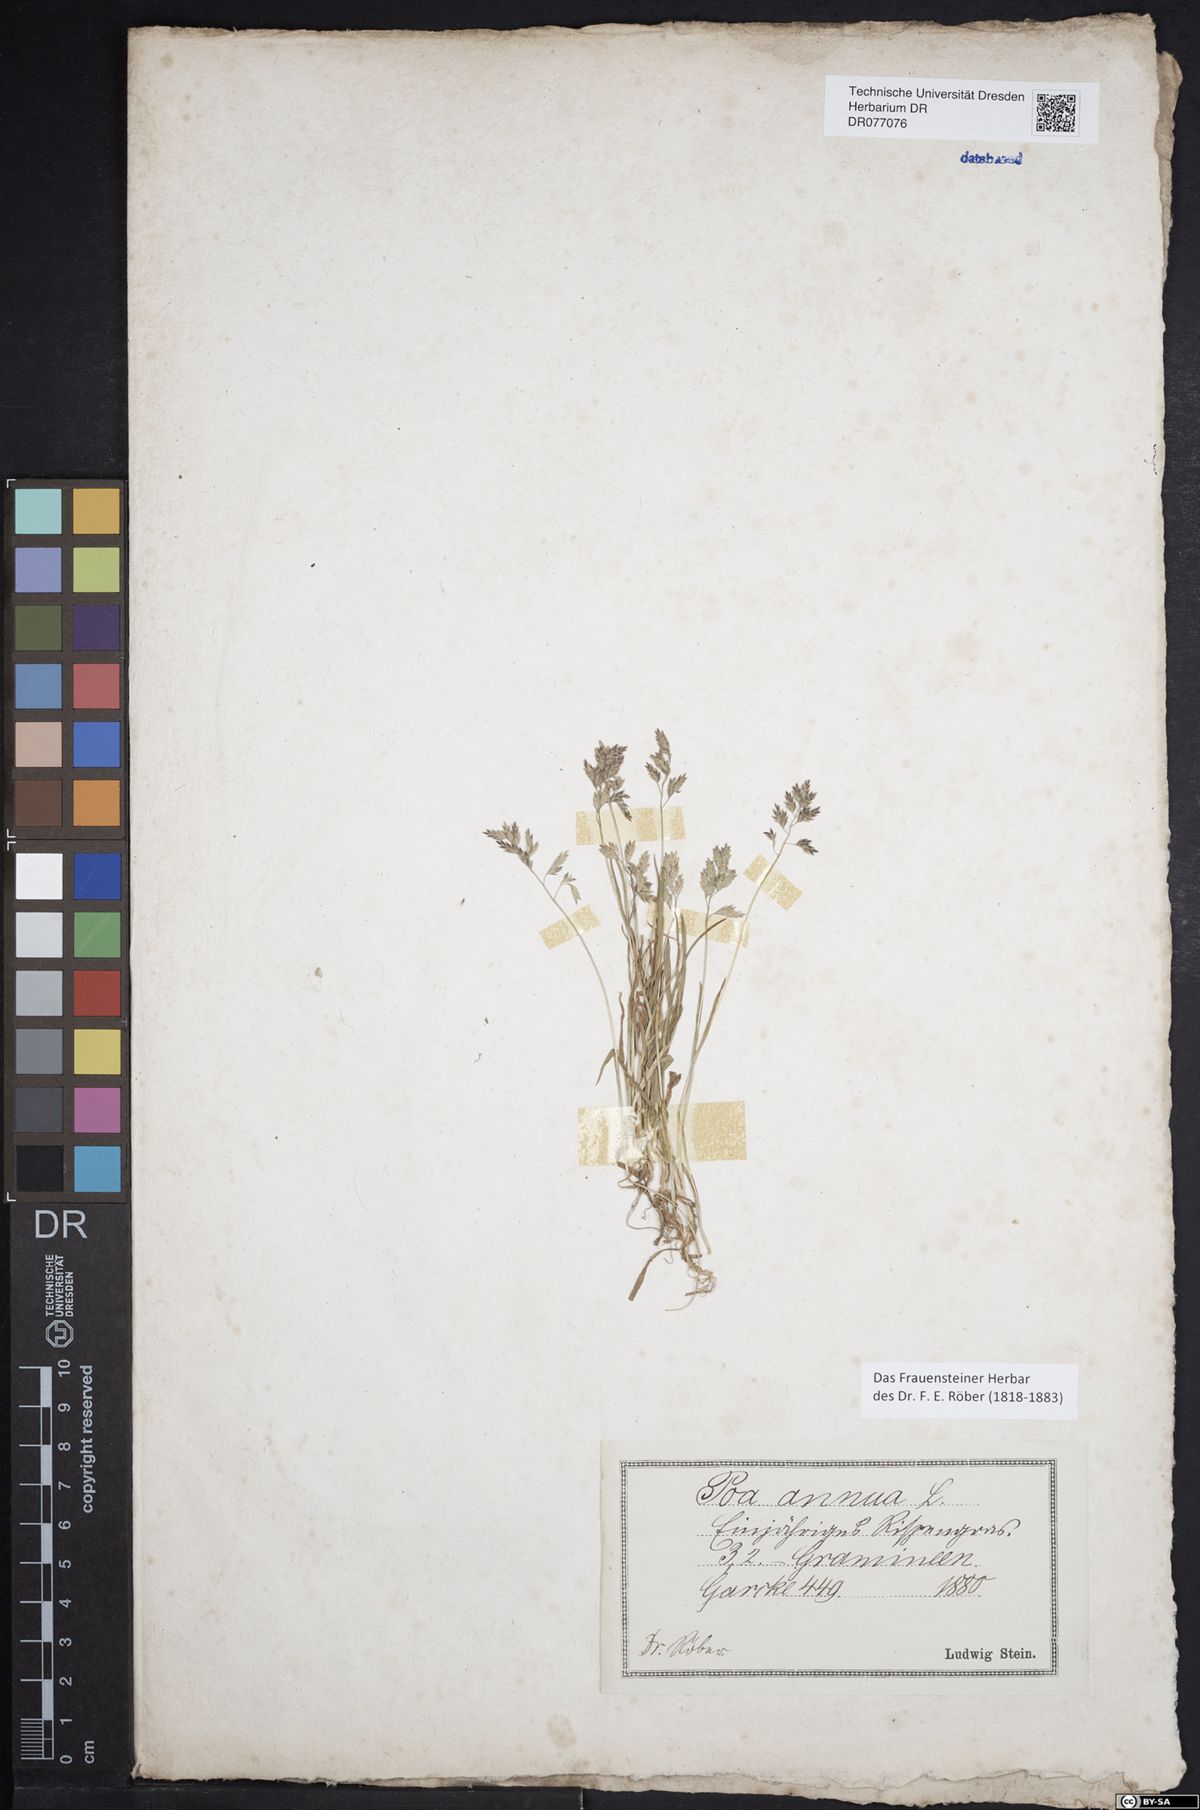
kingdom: Plantae
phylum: Tracheophyta
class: Liliopsida
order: Poales
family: Poaceae
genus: Poa
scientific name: Poa annua
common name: Annual bluegrass
